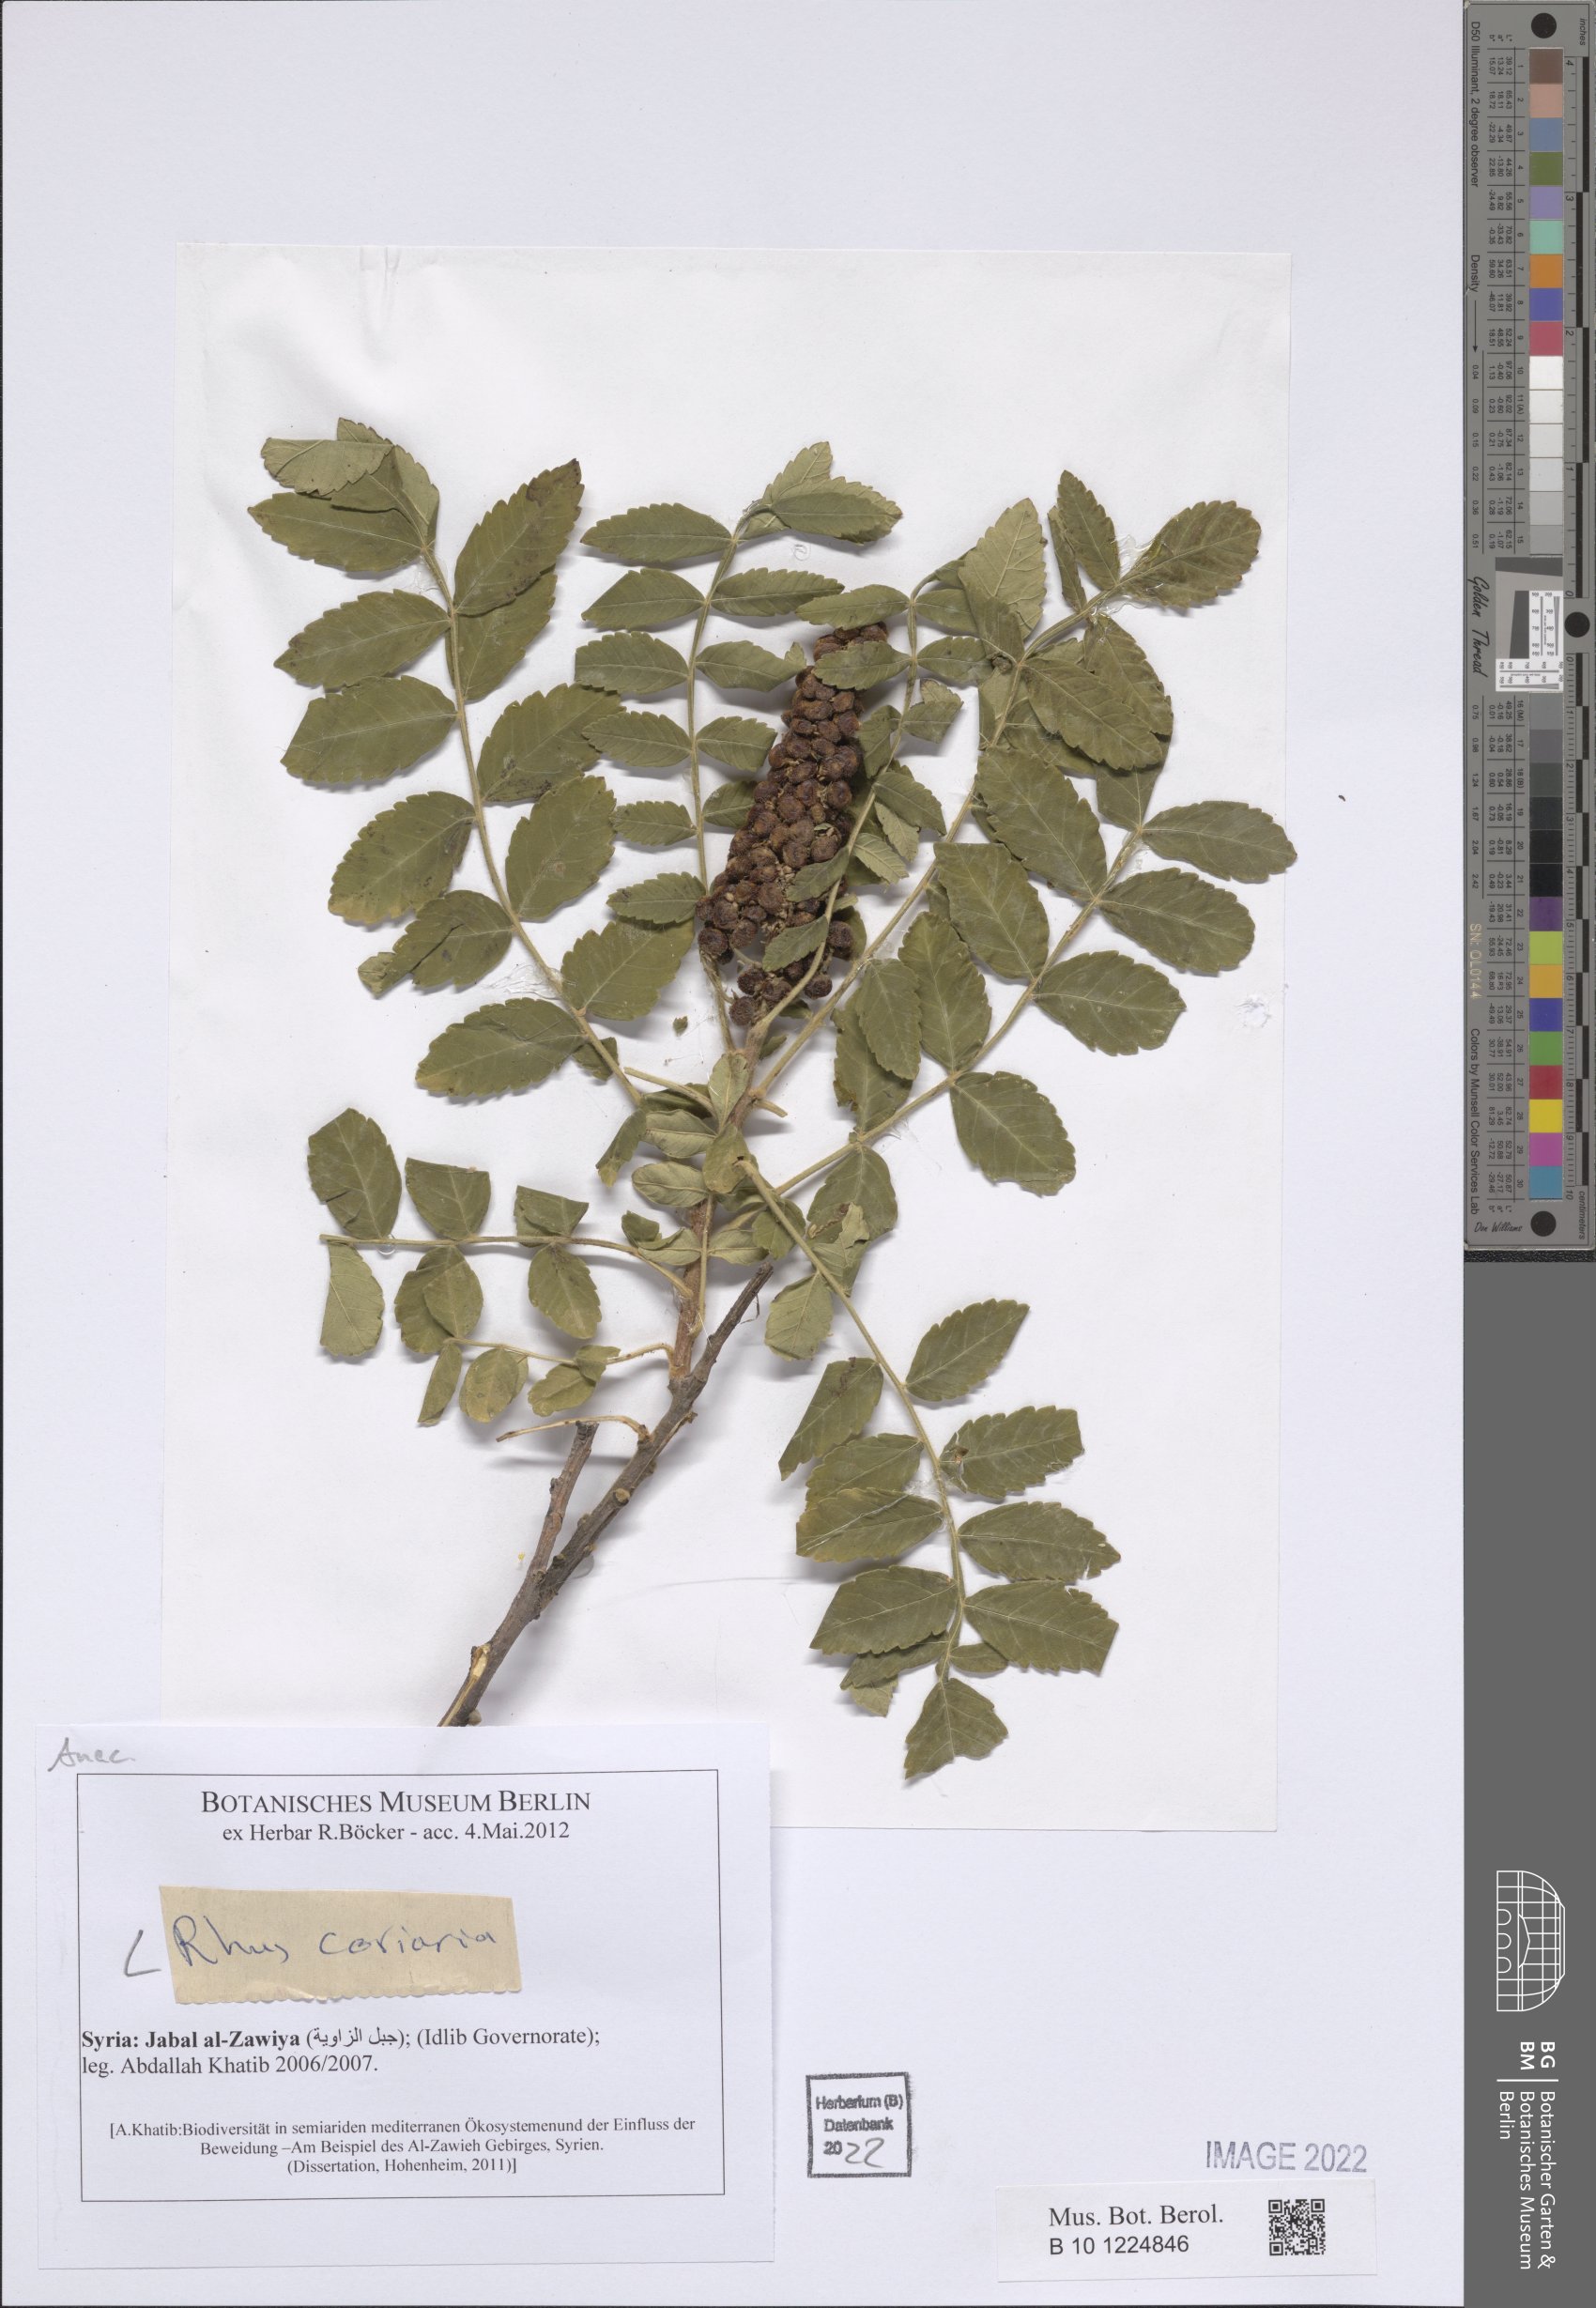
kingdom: Plantae
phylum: Tracheophyta
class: Magnoliopsida
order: Sapindales
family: Anacardiaceae
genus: Rhus
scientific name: Rhus coriaria
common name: Tanner's sumach
